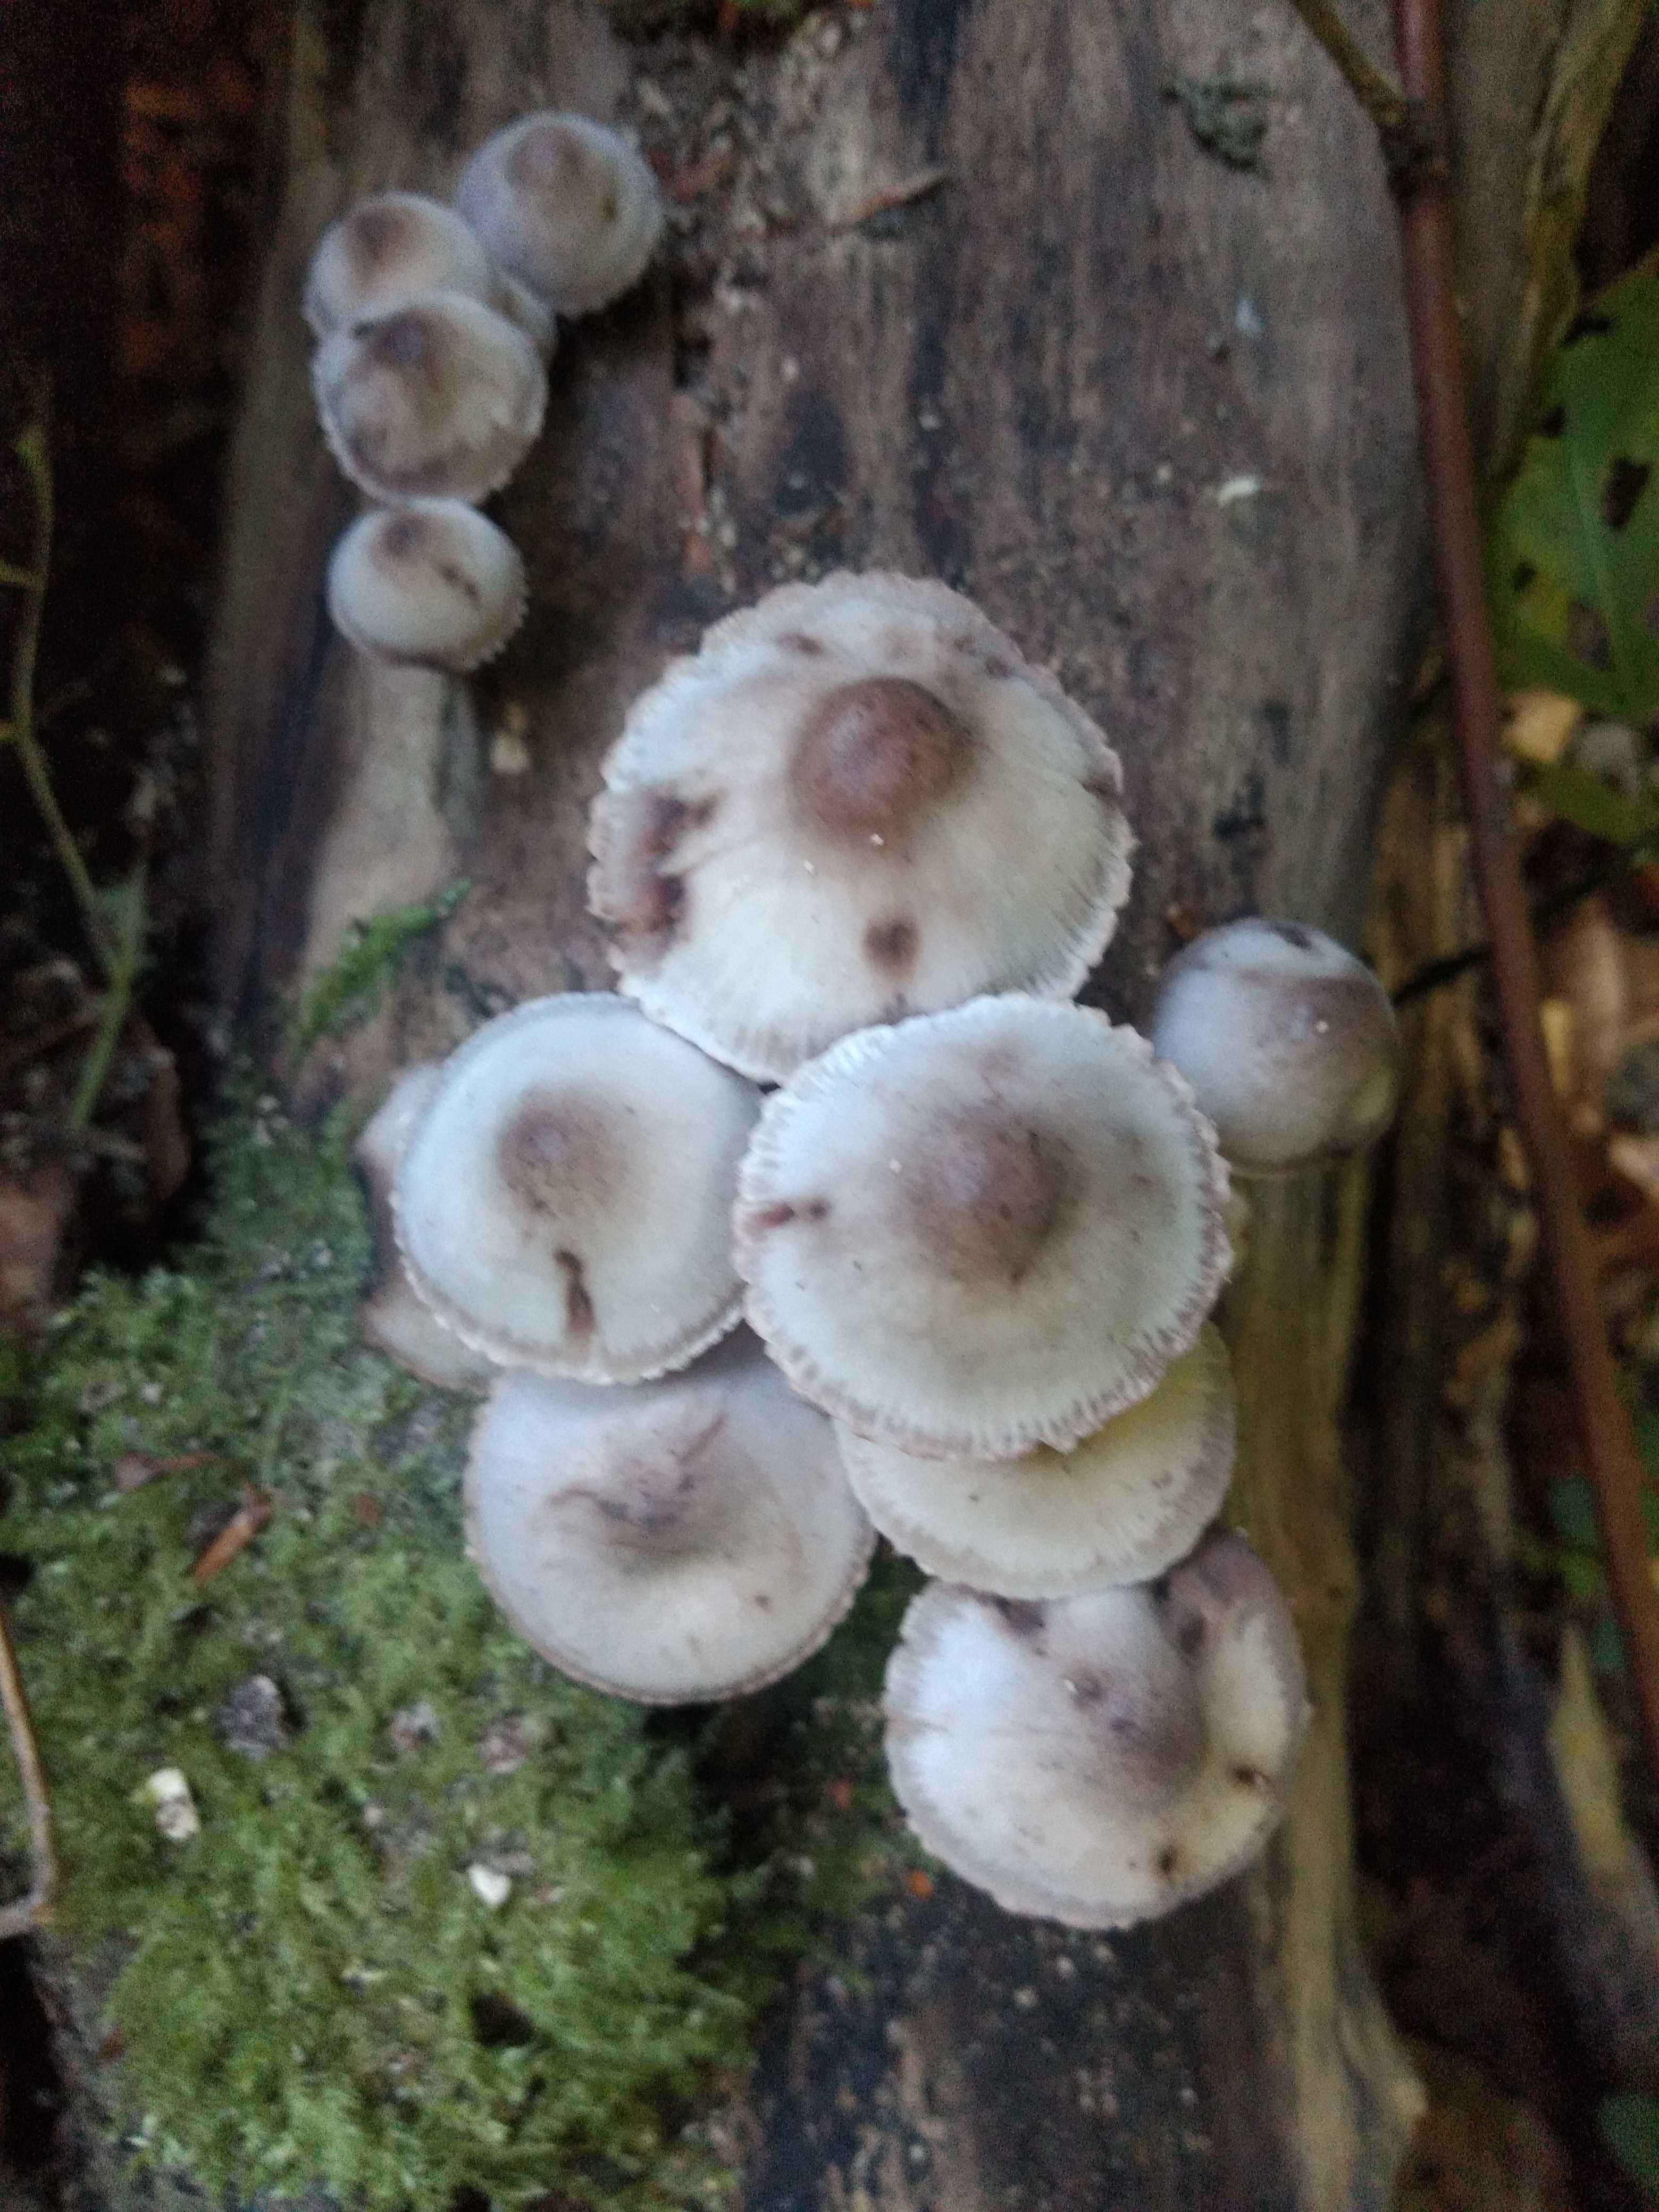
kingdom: Fungi
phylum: Basidiomycota
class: Agaricomycetes
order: Agaricales
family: Mycenaceae
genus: Mycena
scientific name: Mycena haematopus
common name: blødende huesvamp
